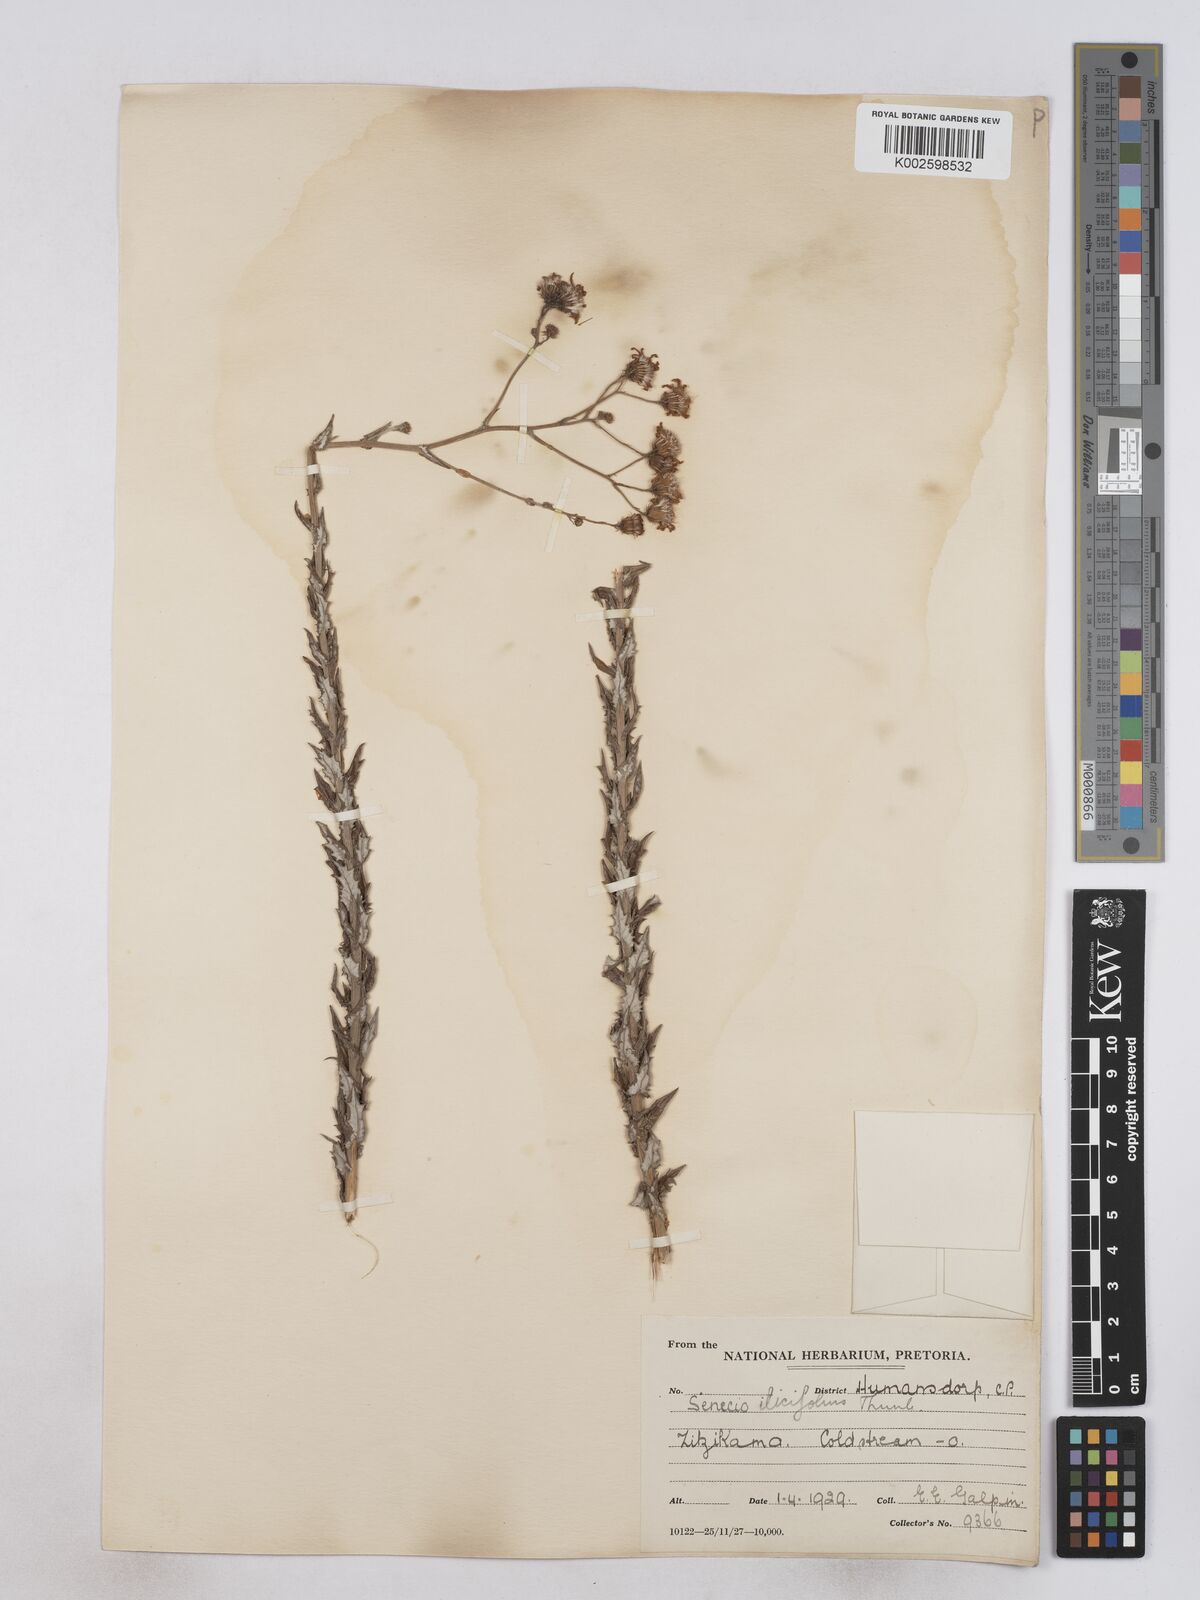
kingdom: Plantae
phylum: Tracheophyta
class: Magnoliopsida
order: Asterales
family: Asteraceae
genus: Senecio
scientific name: Senecio ilicifolius
